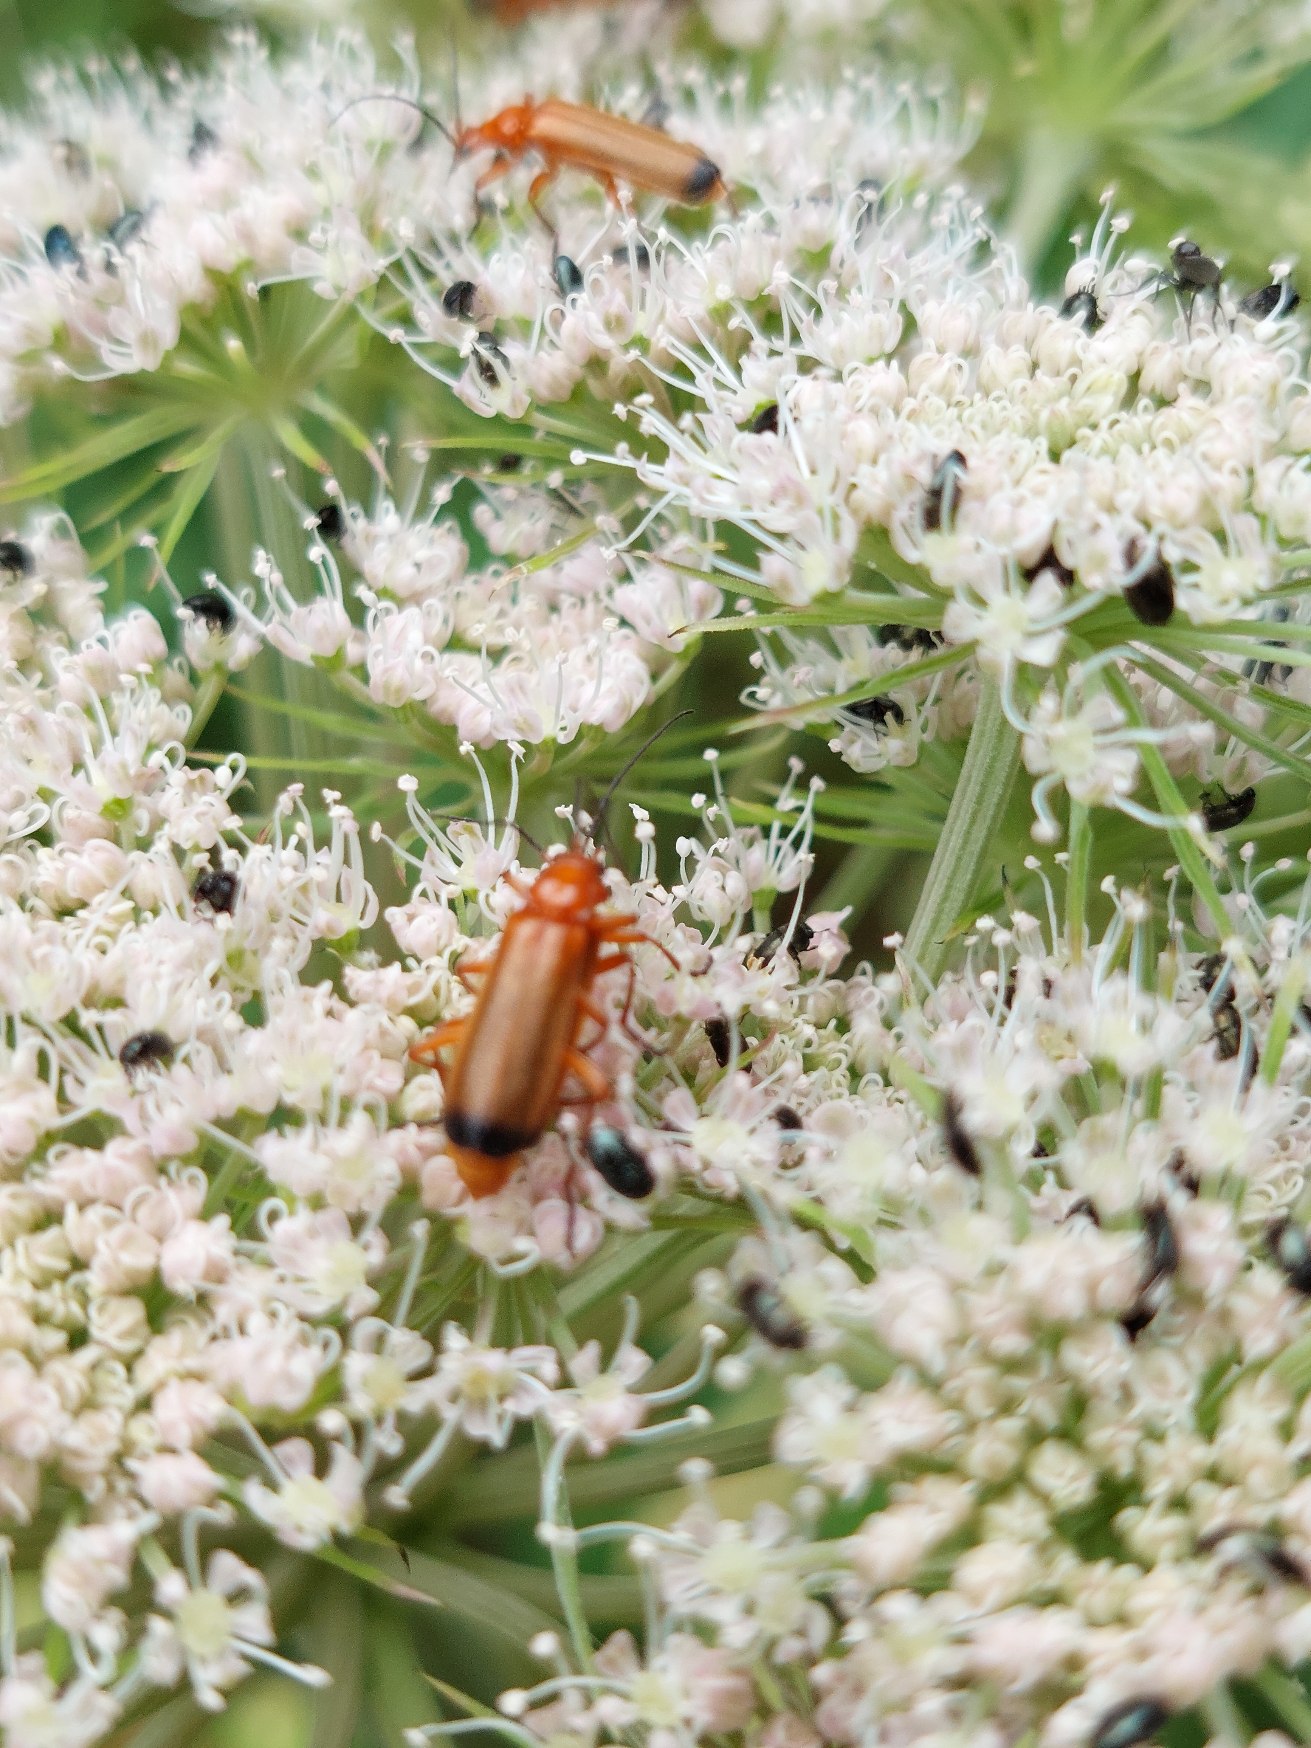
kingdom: Animalia
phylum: Arthropoda
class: Insecta
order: Coleoptera
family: Cantharidae
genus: Rhagonycha
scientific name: Rhagonycha fulva
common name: Præstebille
